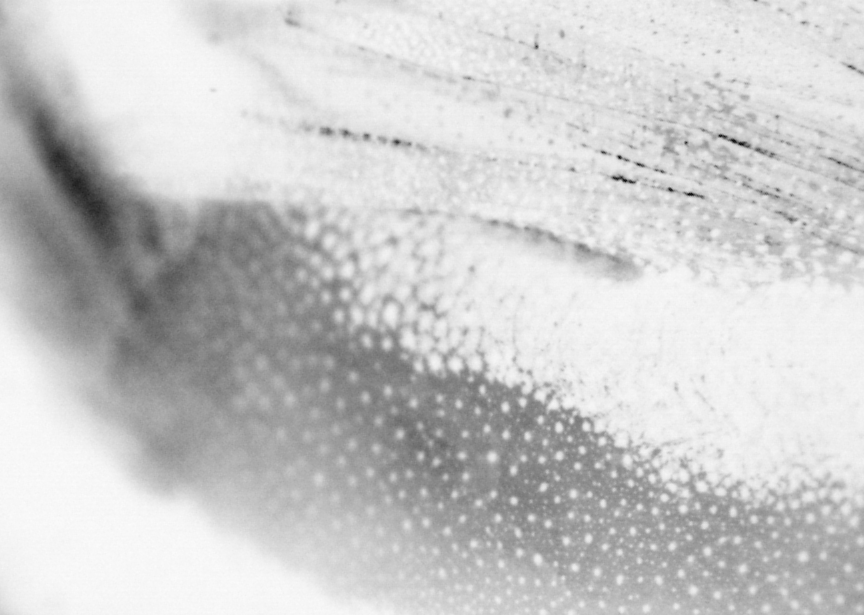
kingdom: Animalia
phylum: Chordata
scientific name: Chordata
